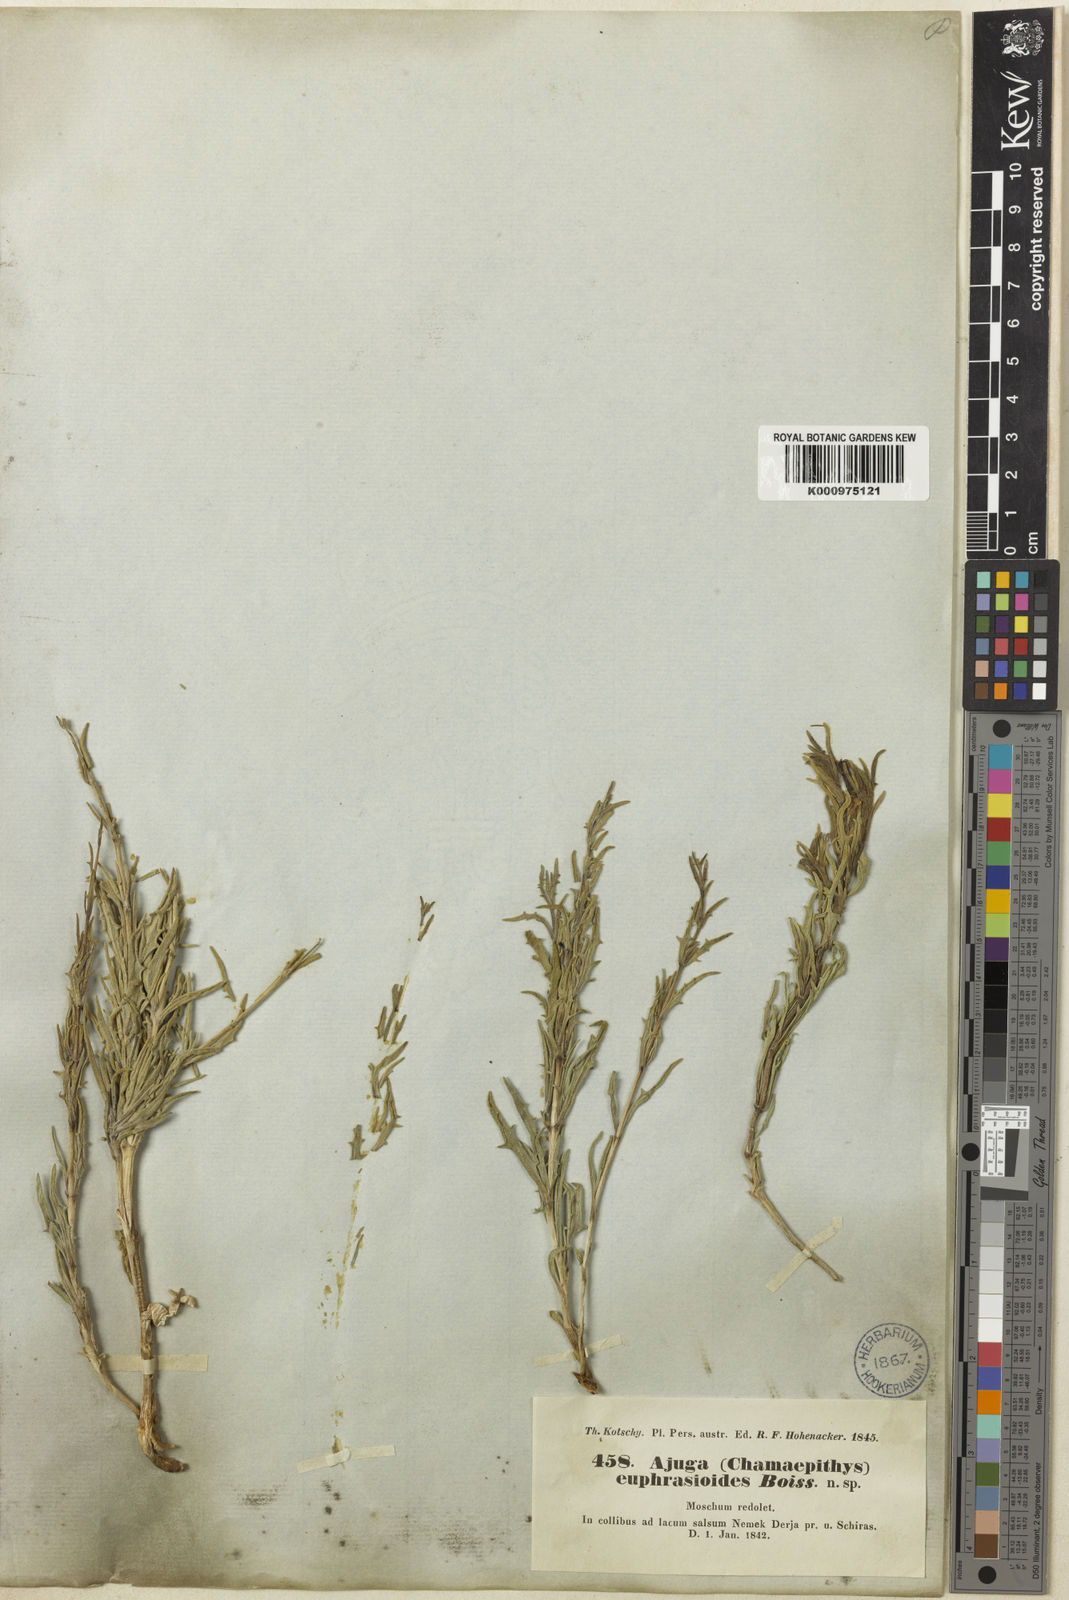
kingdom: Plantae
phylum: Tracheophyta
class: Magnoliopsida
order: Lamiales
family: Lamiaceae
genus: Ajuga
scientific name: Ajuga chamaecistus
